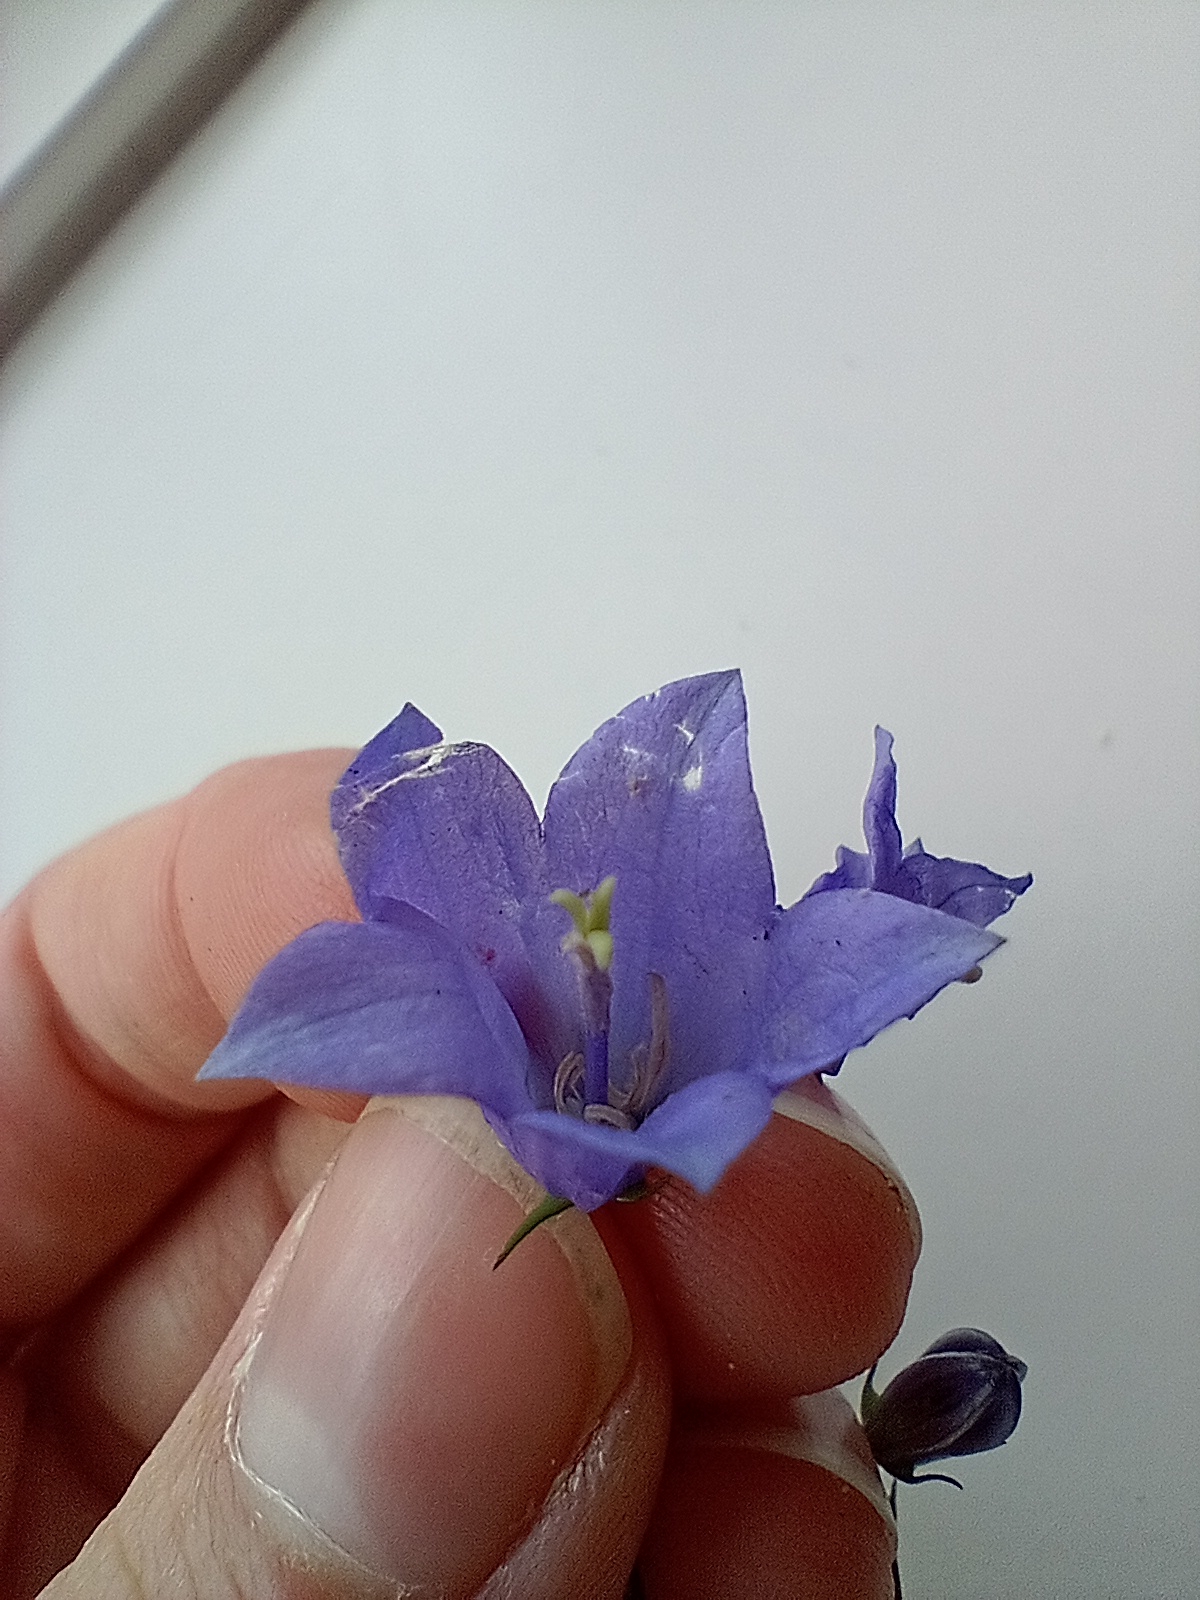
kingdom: Plantae
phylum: Tracheophyta
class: Magnoliopsida
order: Asterales
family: Campanulaceae
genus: Campanula
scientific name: Campanula rotundifolia
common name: Liden klokke
